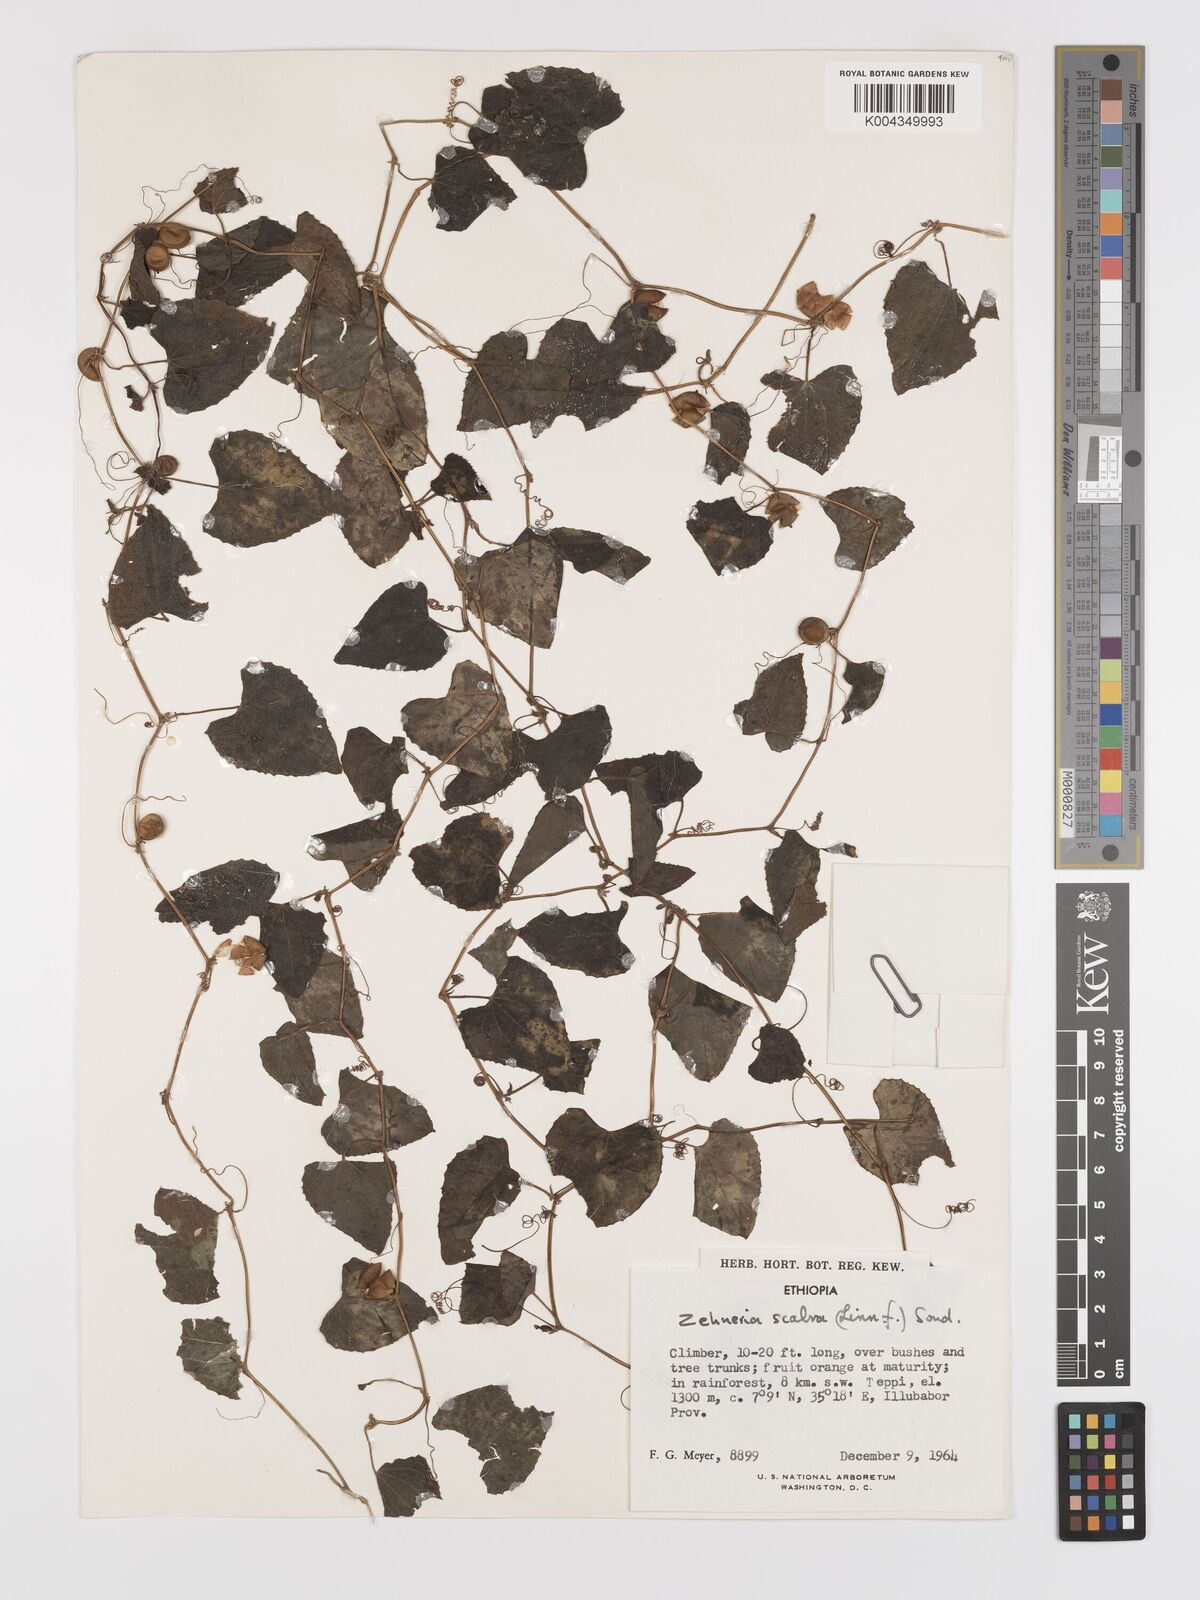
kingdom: Plantae
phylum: Tracheophyta
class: Magnoliopsida
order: Cucurbitales
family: Cucurbitaceae
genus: Zehneria
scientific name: Zehneria scabra
